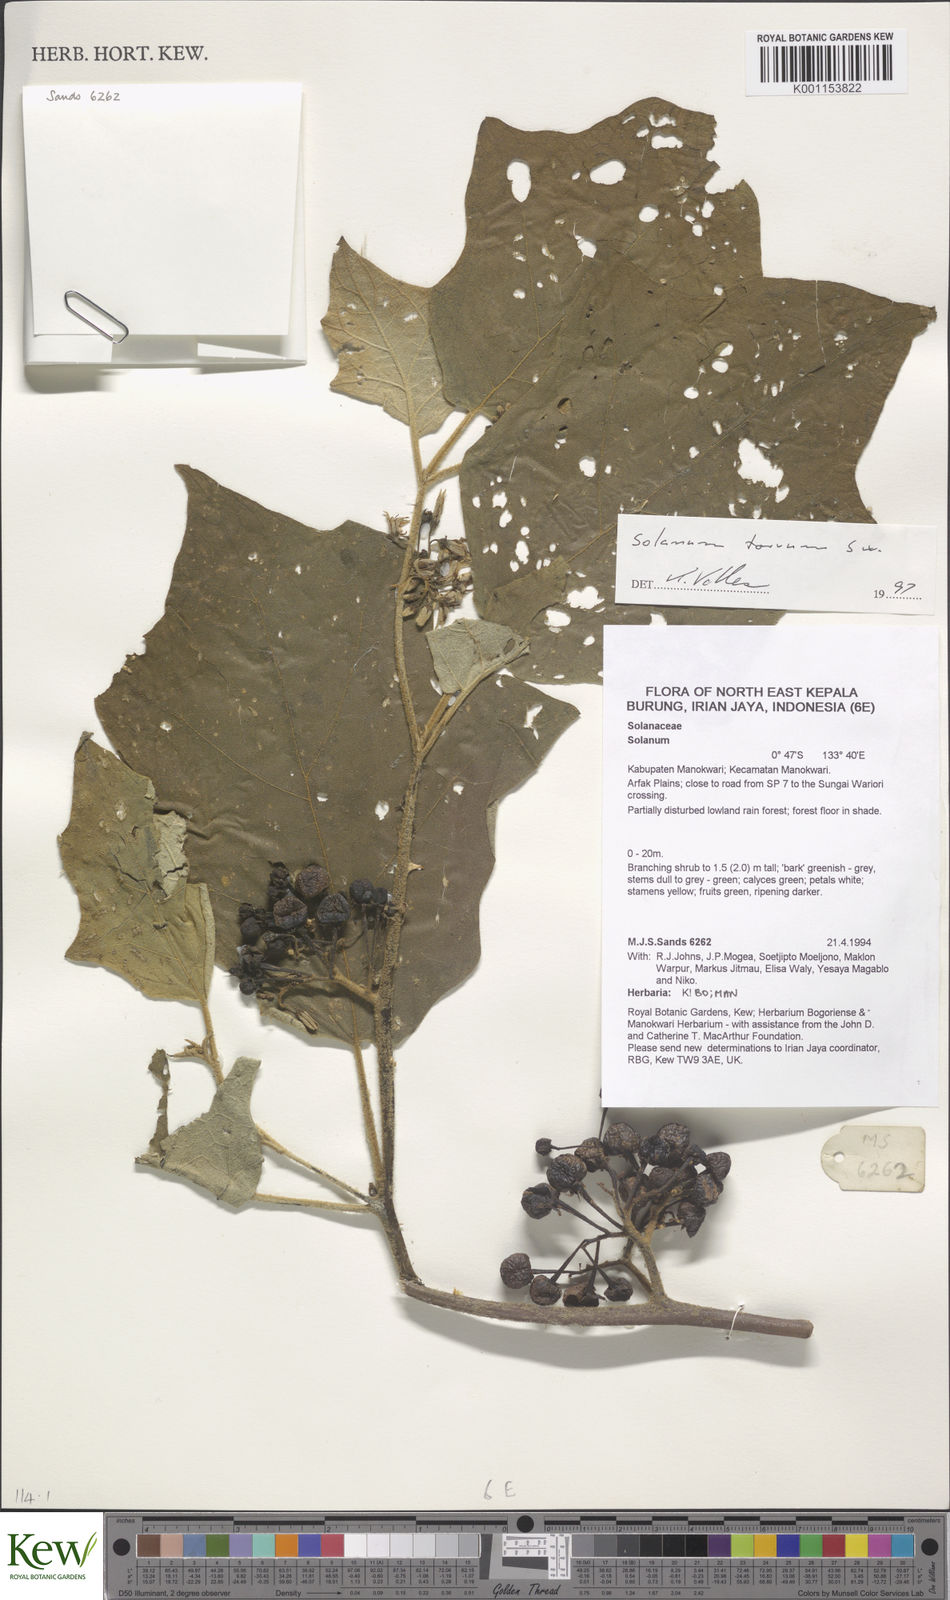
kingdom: Plantae
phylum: Tracheophyta
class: Magnoliopsida
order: Solanales
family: Solanaceae
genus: Solanum
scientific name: Solanum torvum
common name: Turkey berry
